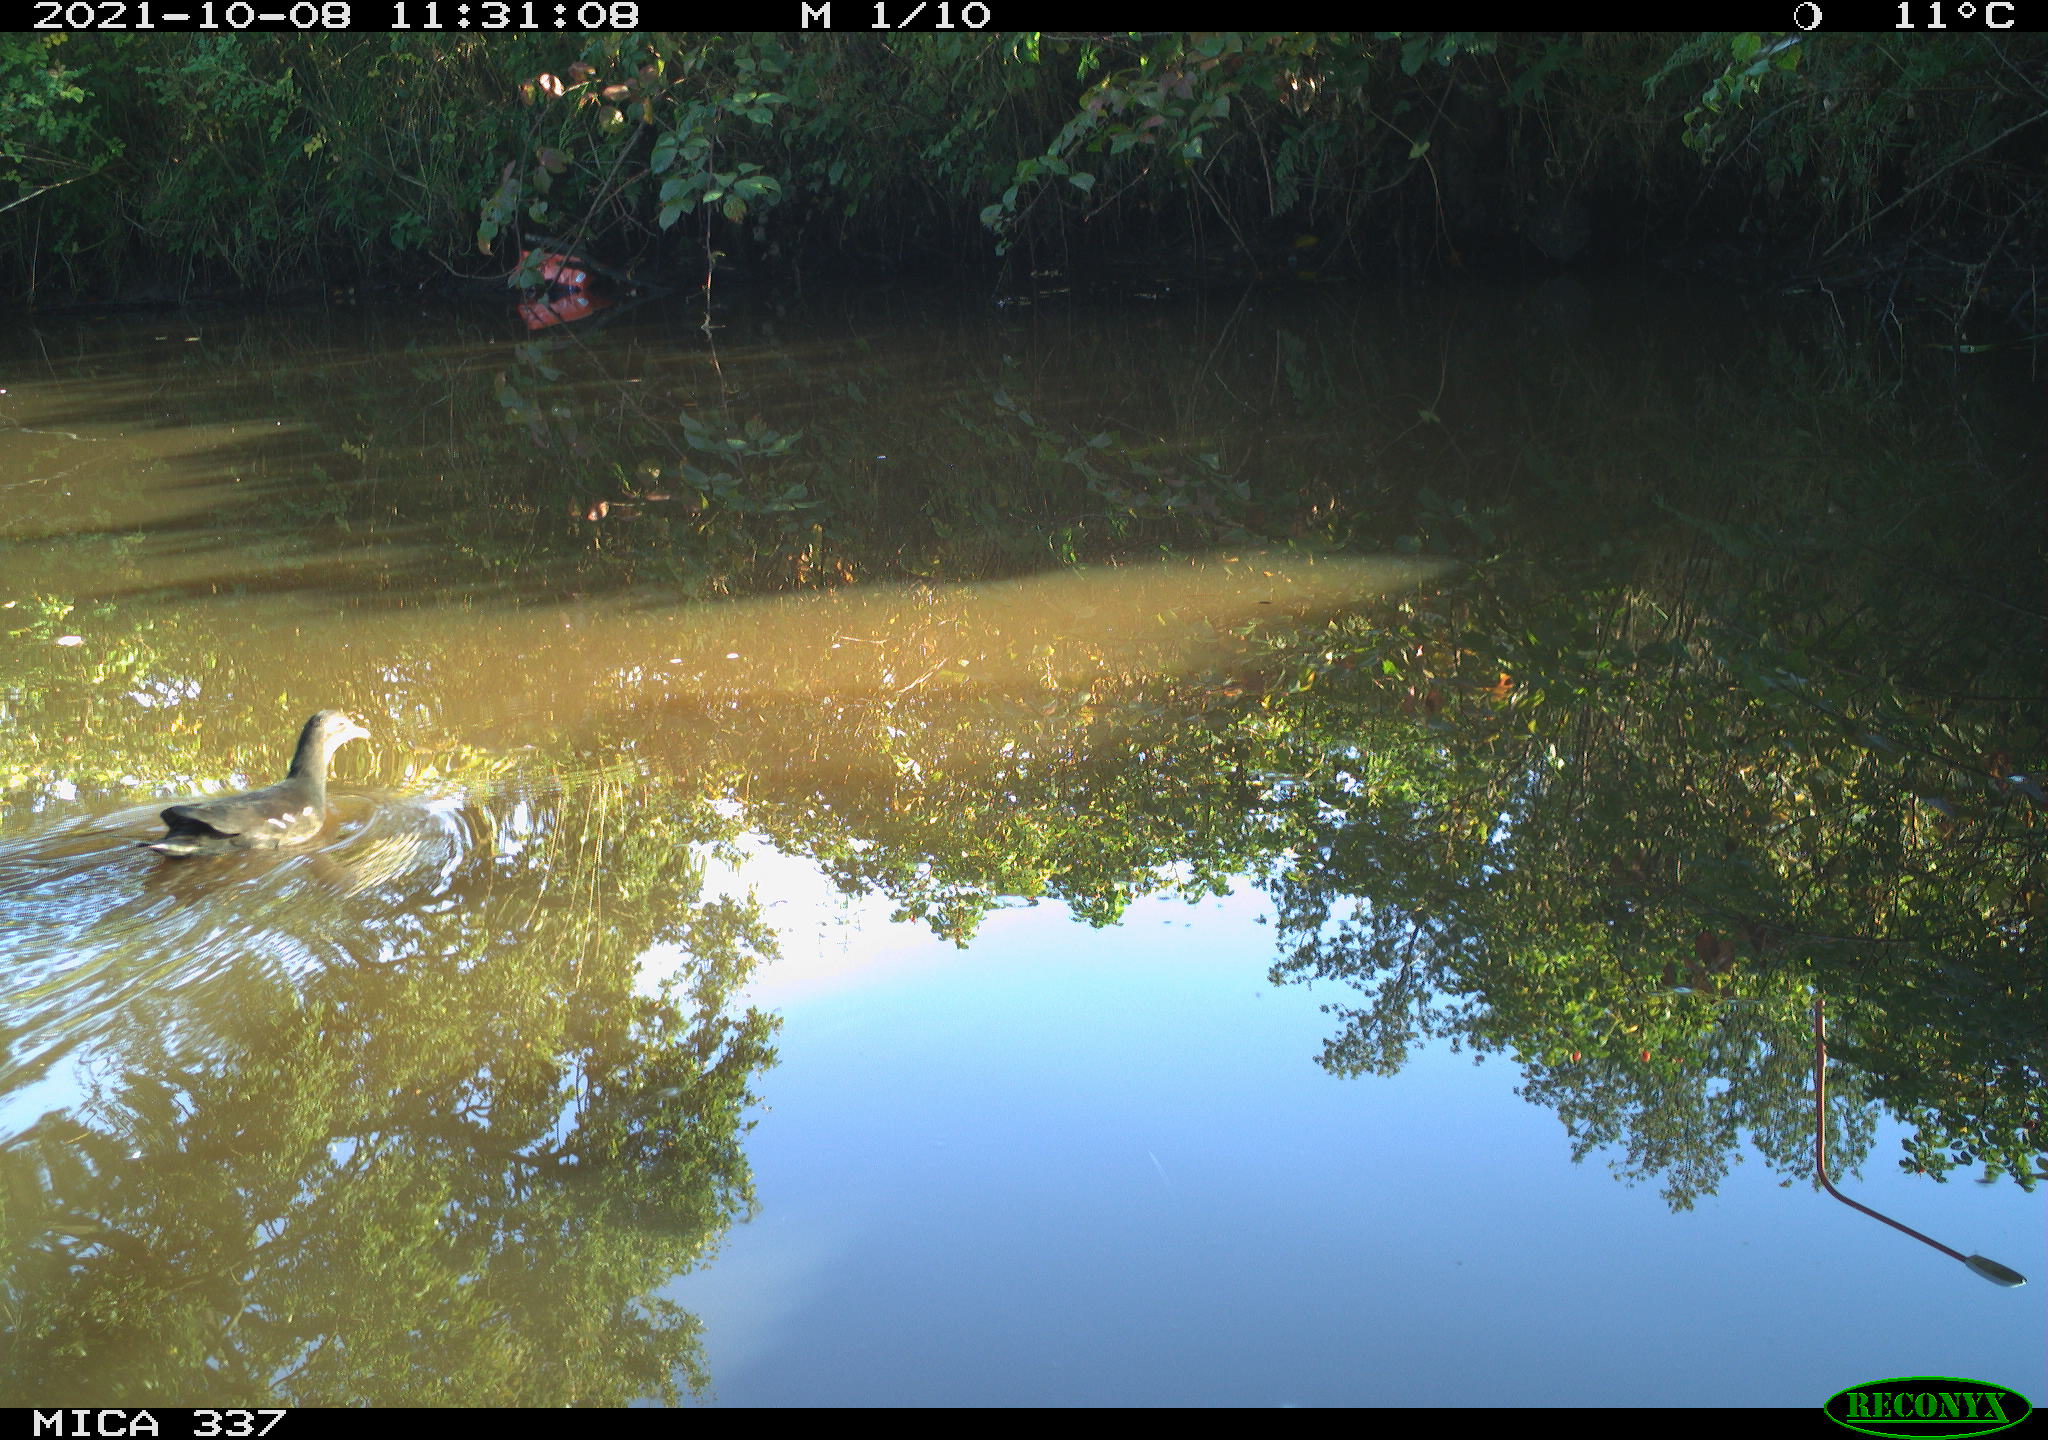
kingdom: Animalia
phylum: Chordata
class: Aves
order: Gruiformes
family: Rallidae
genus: Gallinula
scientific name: Gallinula chloropus
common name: Common moorhen
